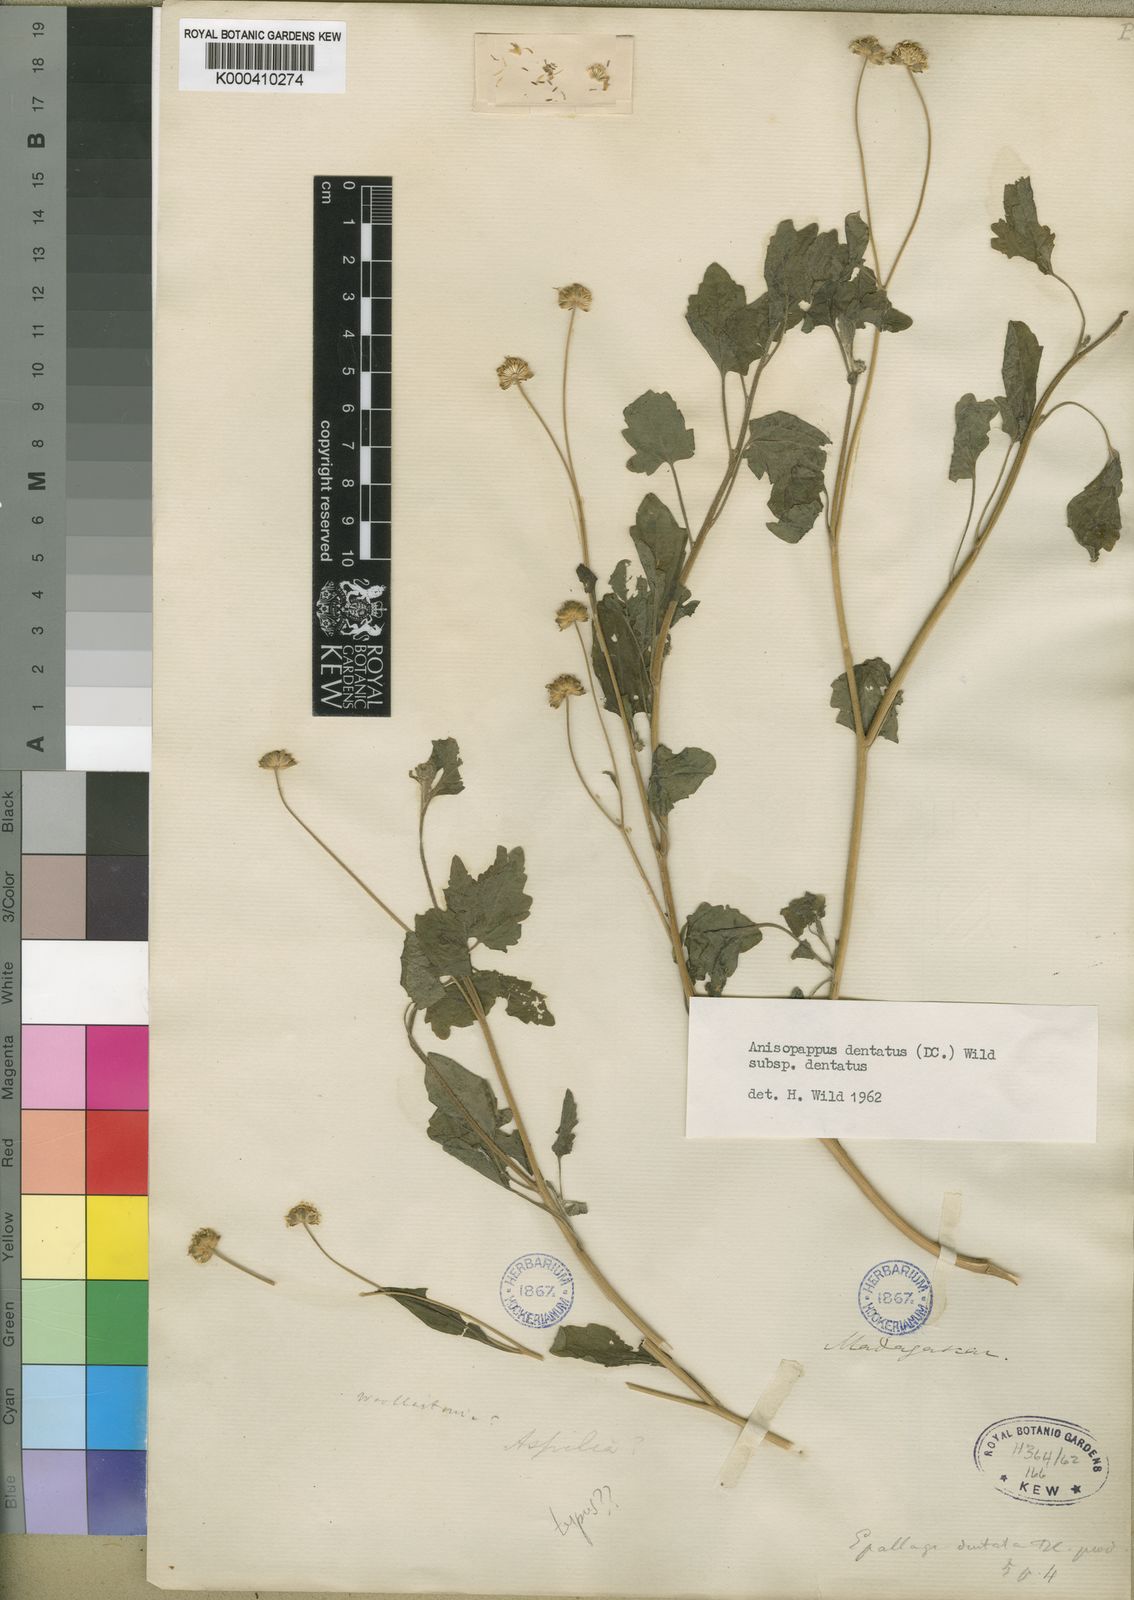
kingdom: Plantae
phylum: Tracheophyta
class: Magnoliopsida
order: Asterales
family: Asteraceae
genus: Anisopappus
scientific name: Anisopappus chinensis
